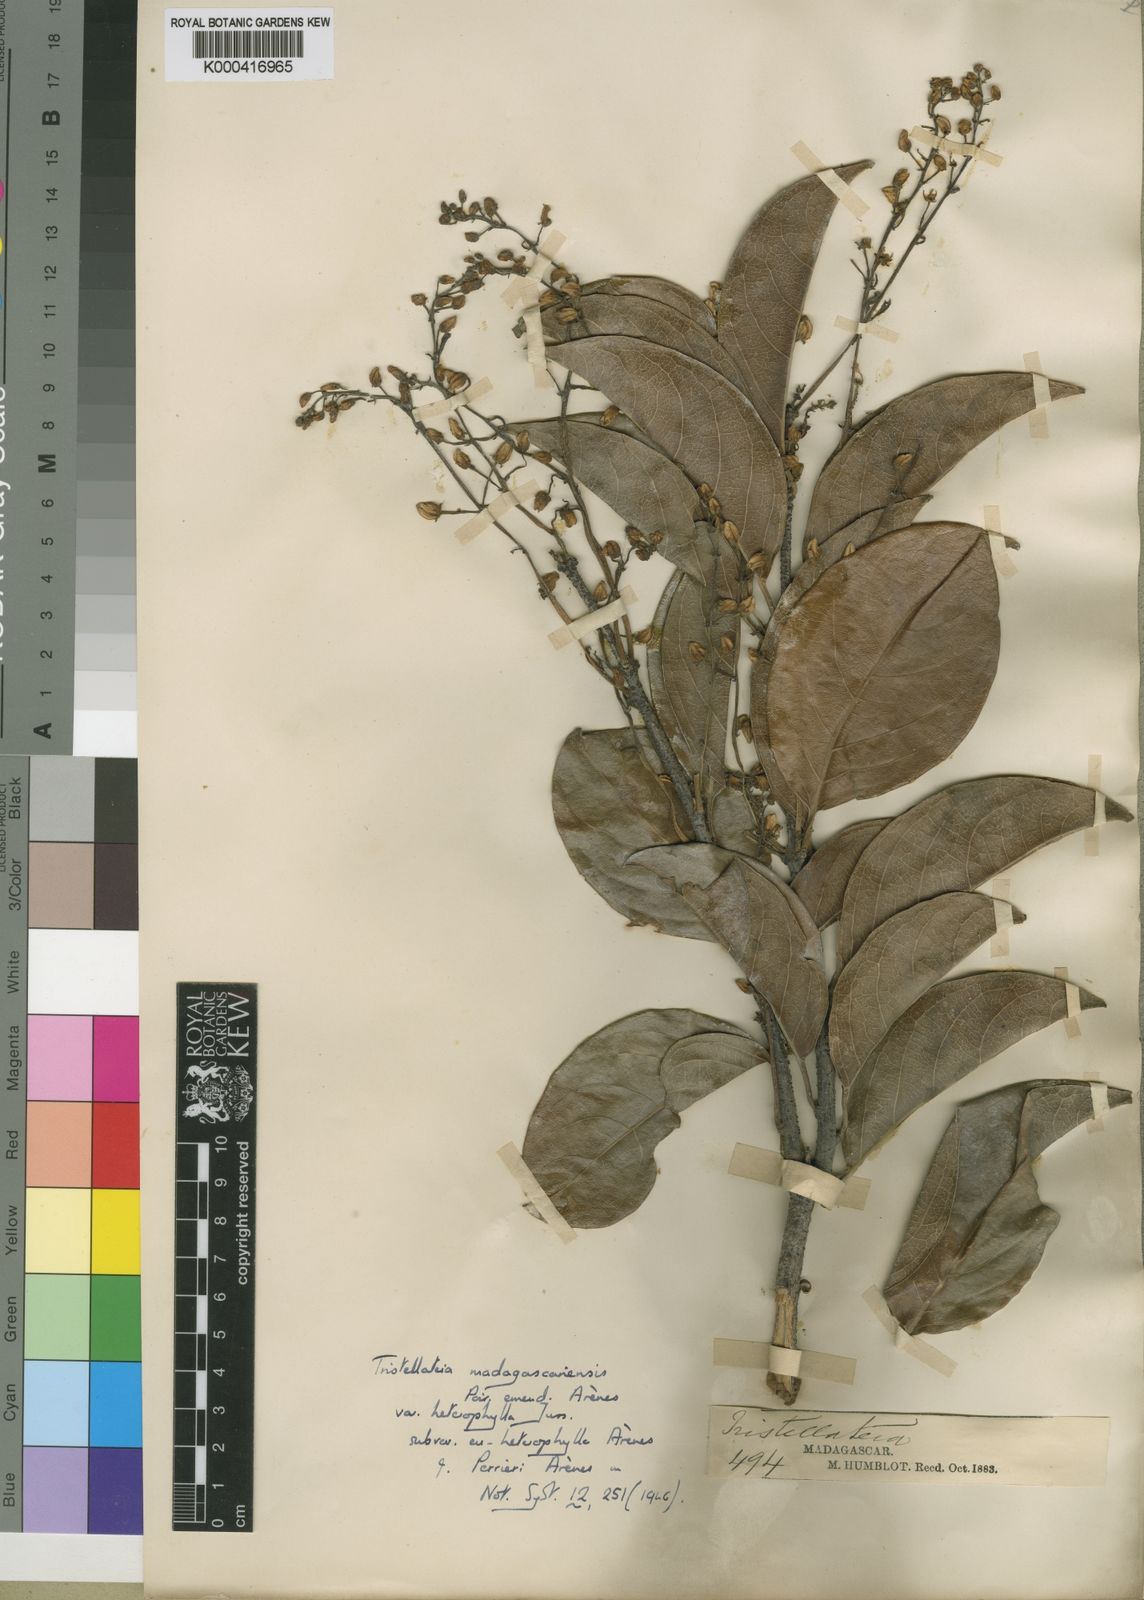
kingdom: Plantae
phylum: Tracheophyta
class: Magnoliopsida
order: Malpighiales
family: Malpighiaceae
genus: Tristellateia
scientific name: Tristellateia madagascariensis
